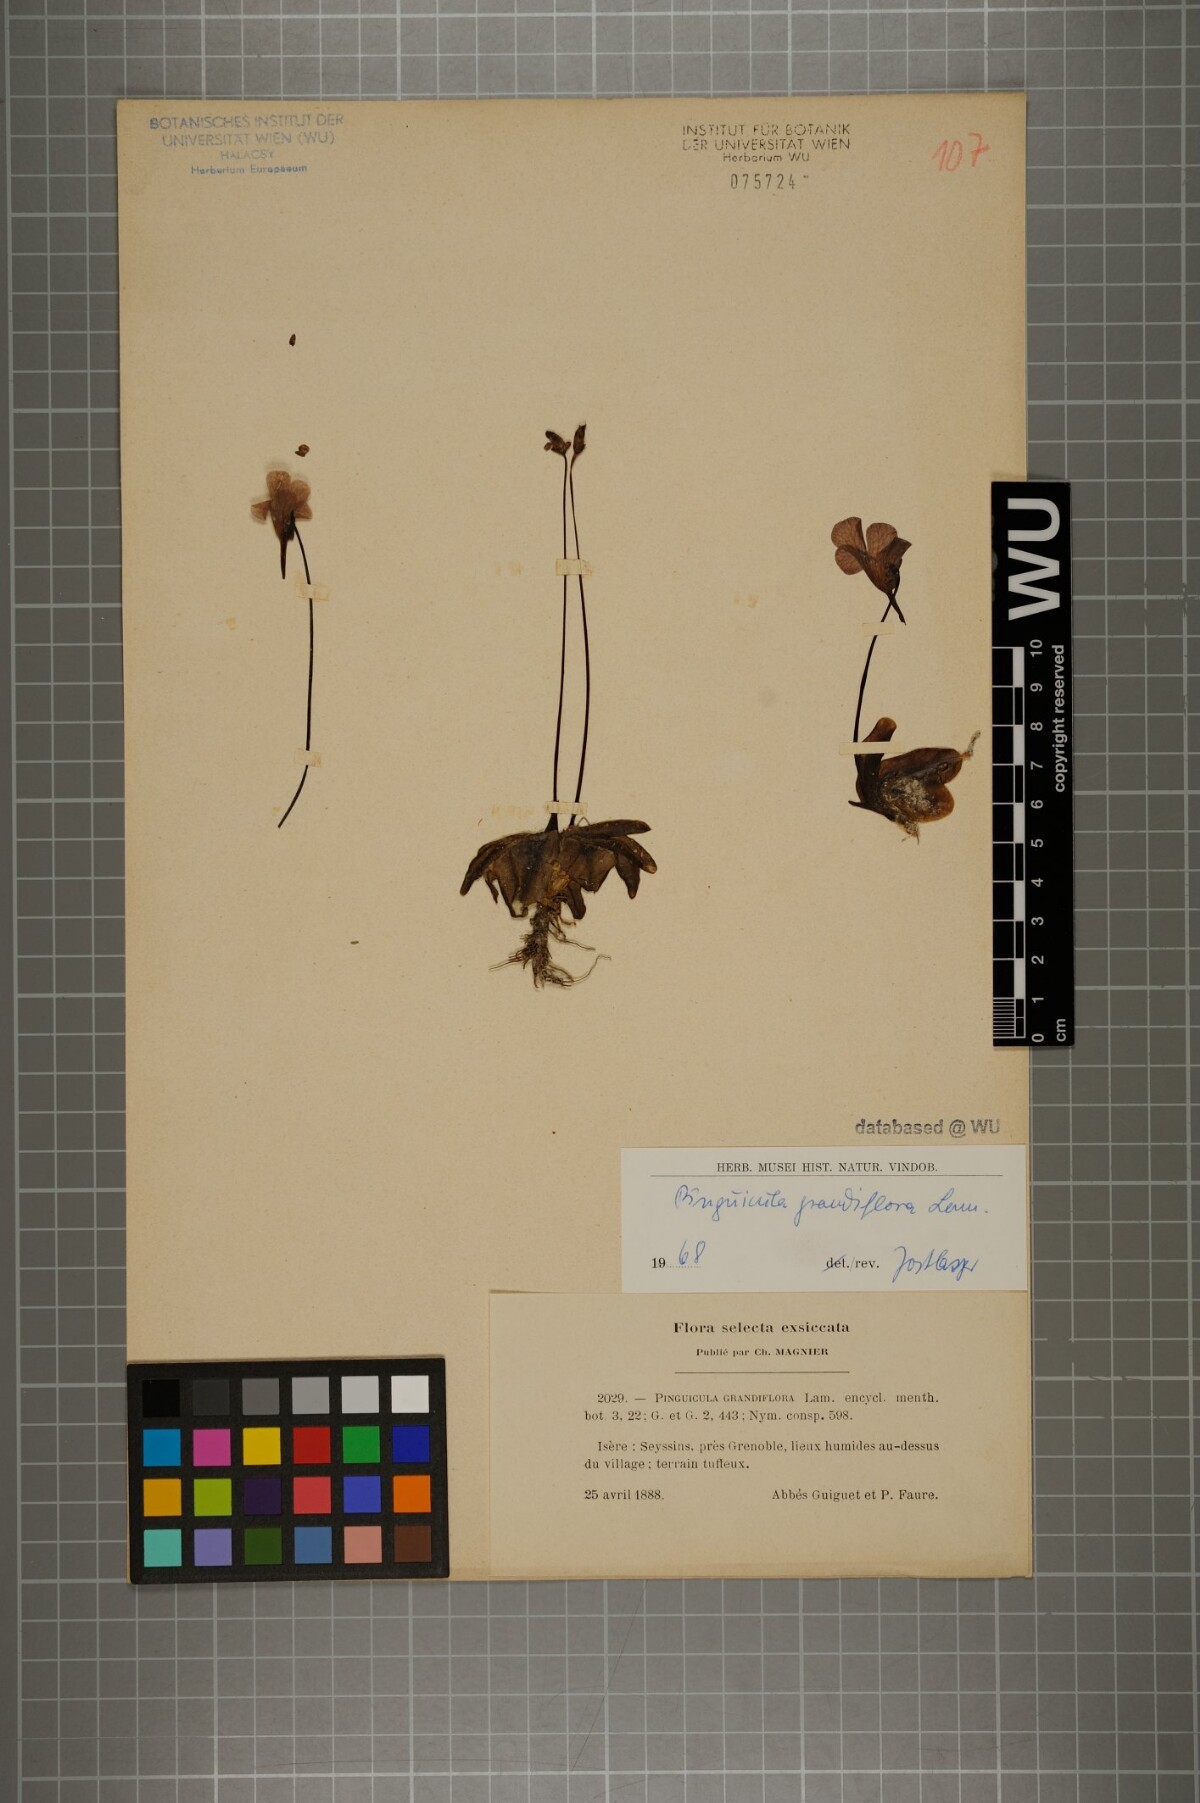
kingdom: Plantae
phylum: Tracheophyta
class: Magnoliopsida
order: Lamiales
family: Lentibulariaceae
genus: Pinguicula
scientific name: Pinguicula grandiflora
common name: Large-flowered butterwort
